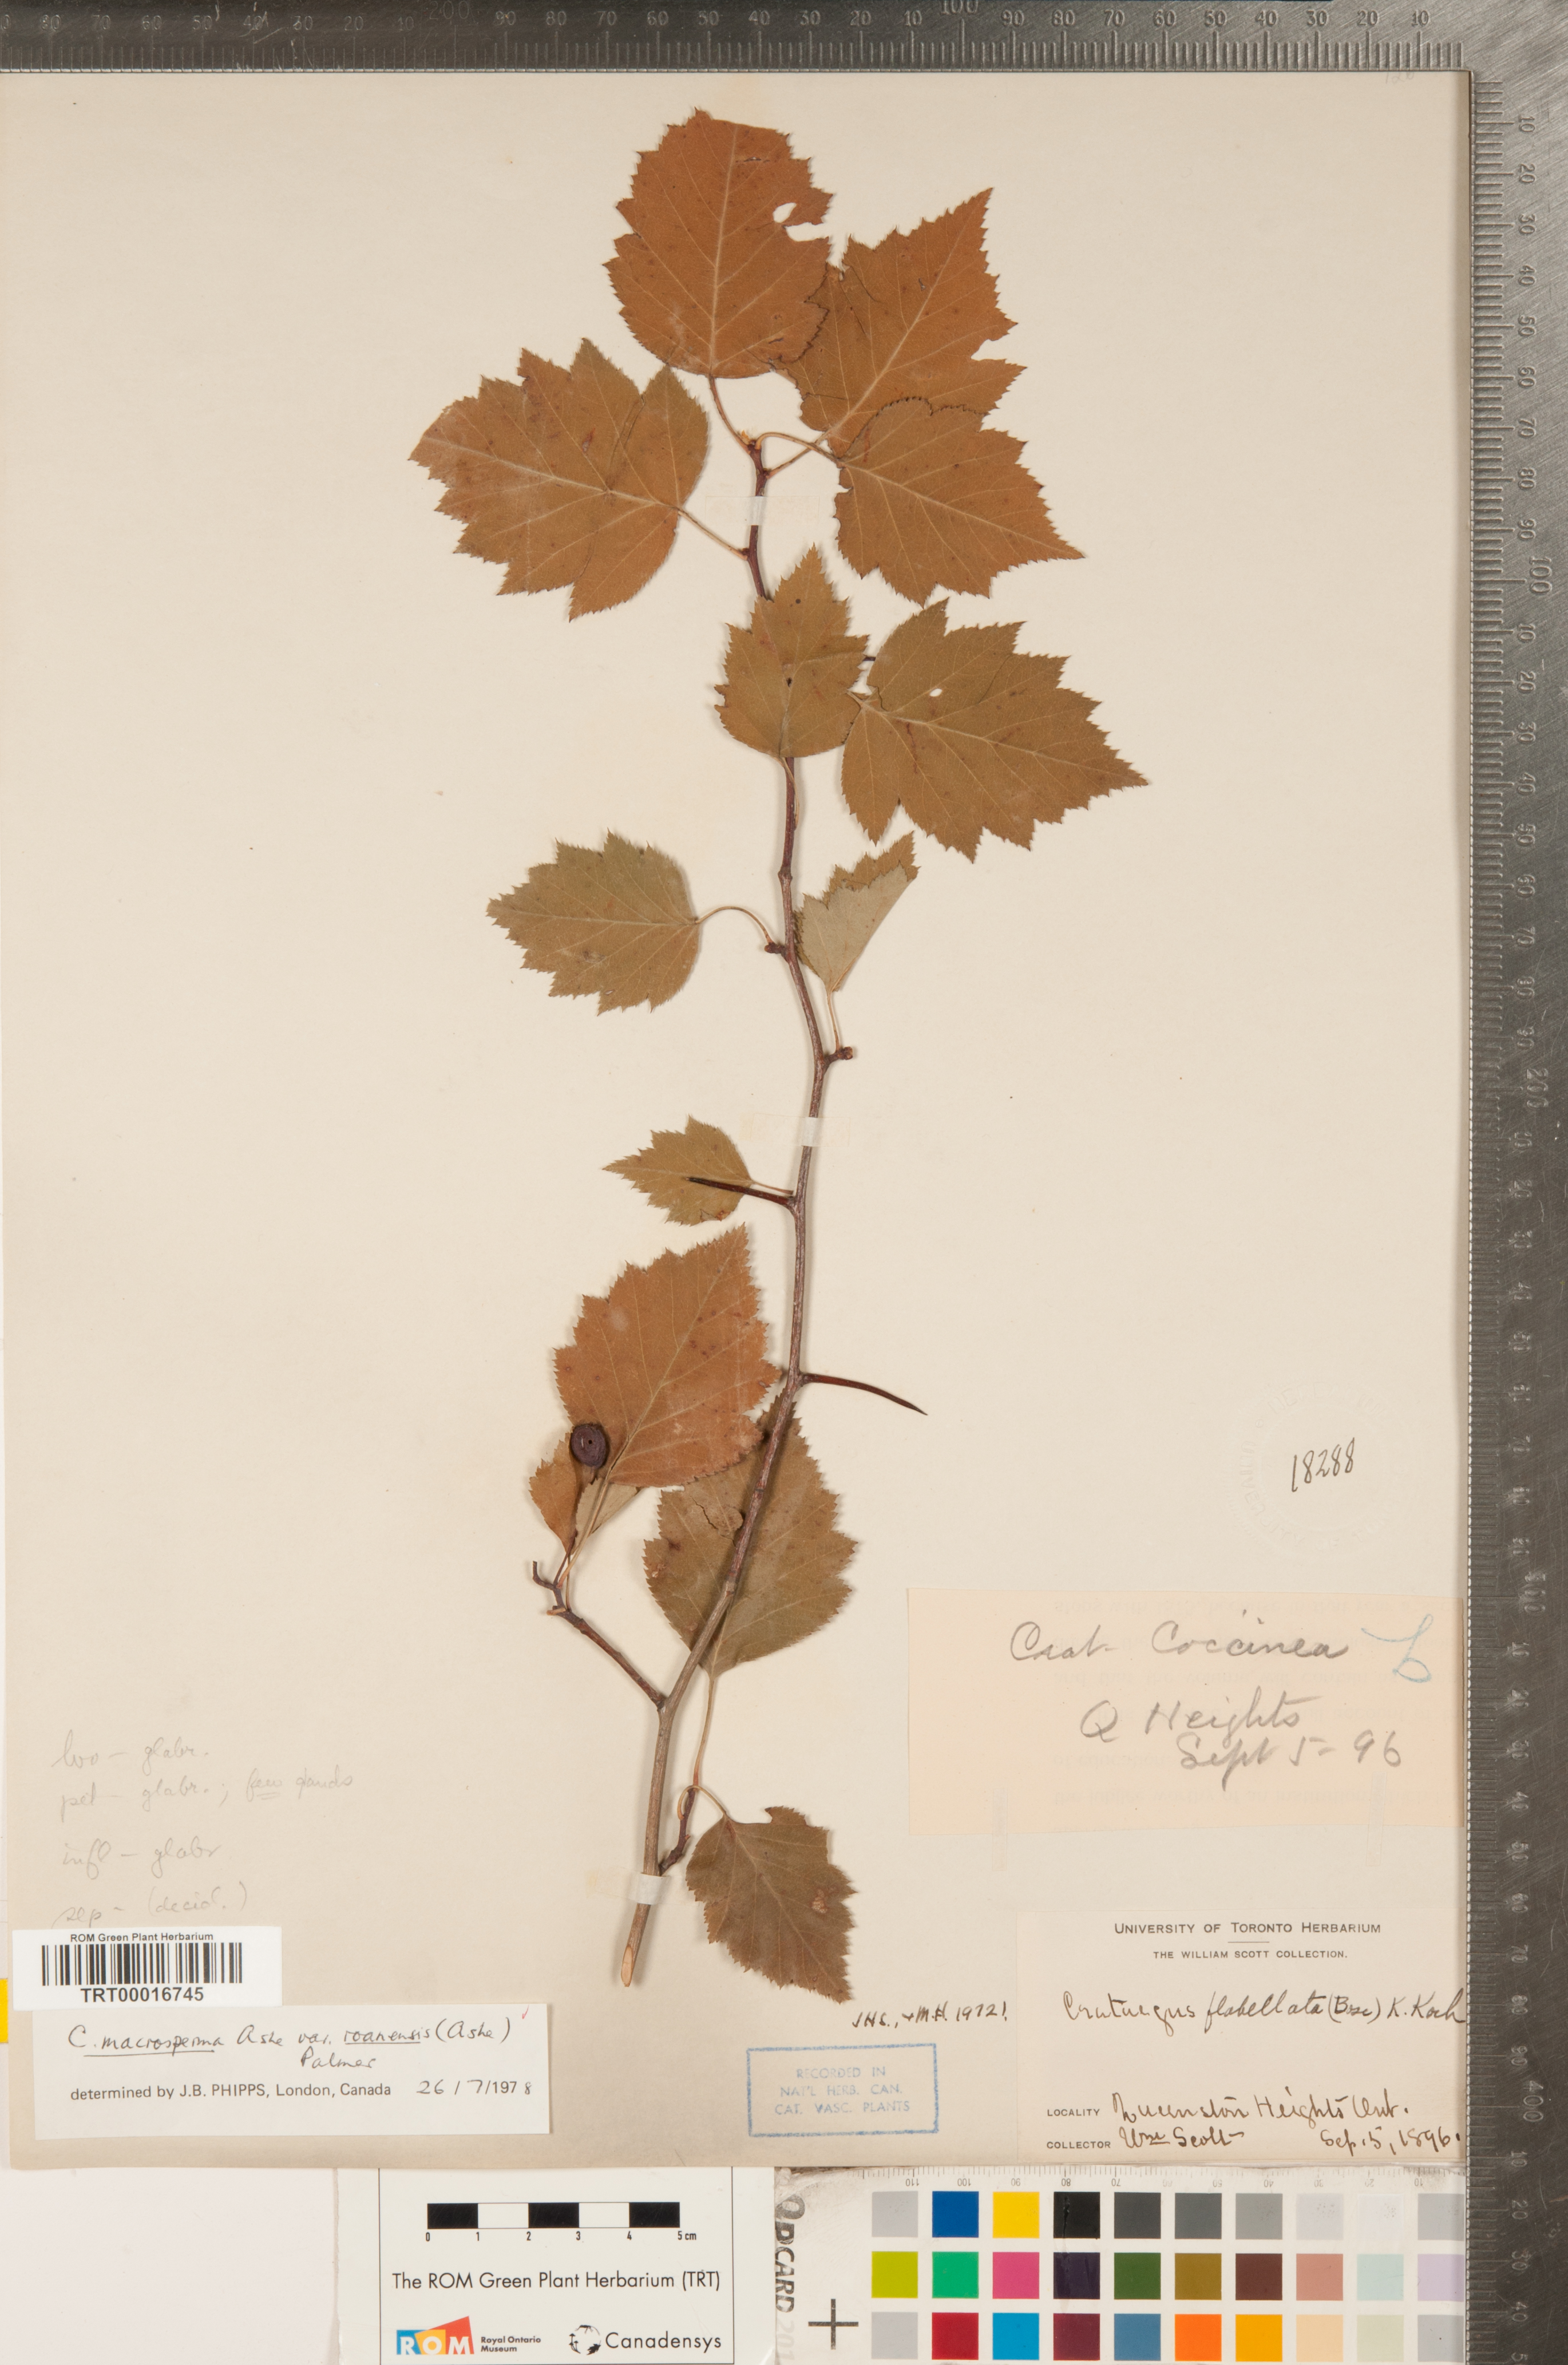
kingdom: Plantae
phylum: Tracheophyta
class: Magnoliopsida
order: Rosales
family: Rosaceae
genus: Crataegus
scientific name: Crataegus macrosperma
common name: Variable hawthorn
